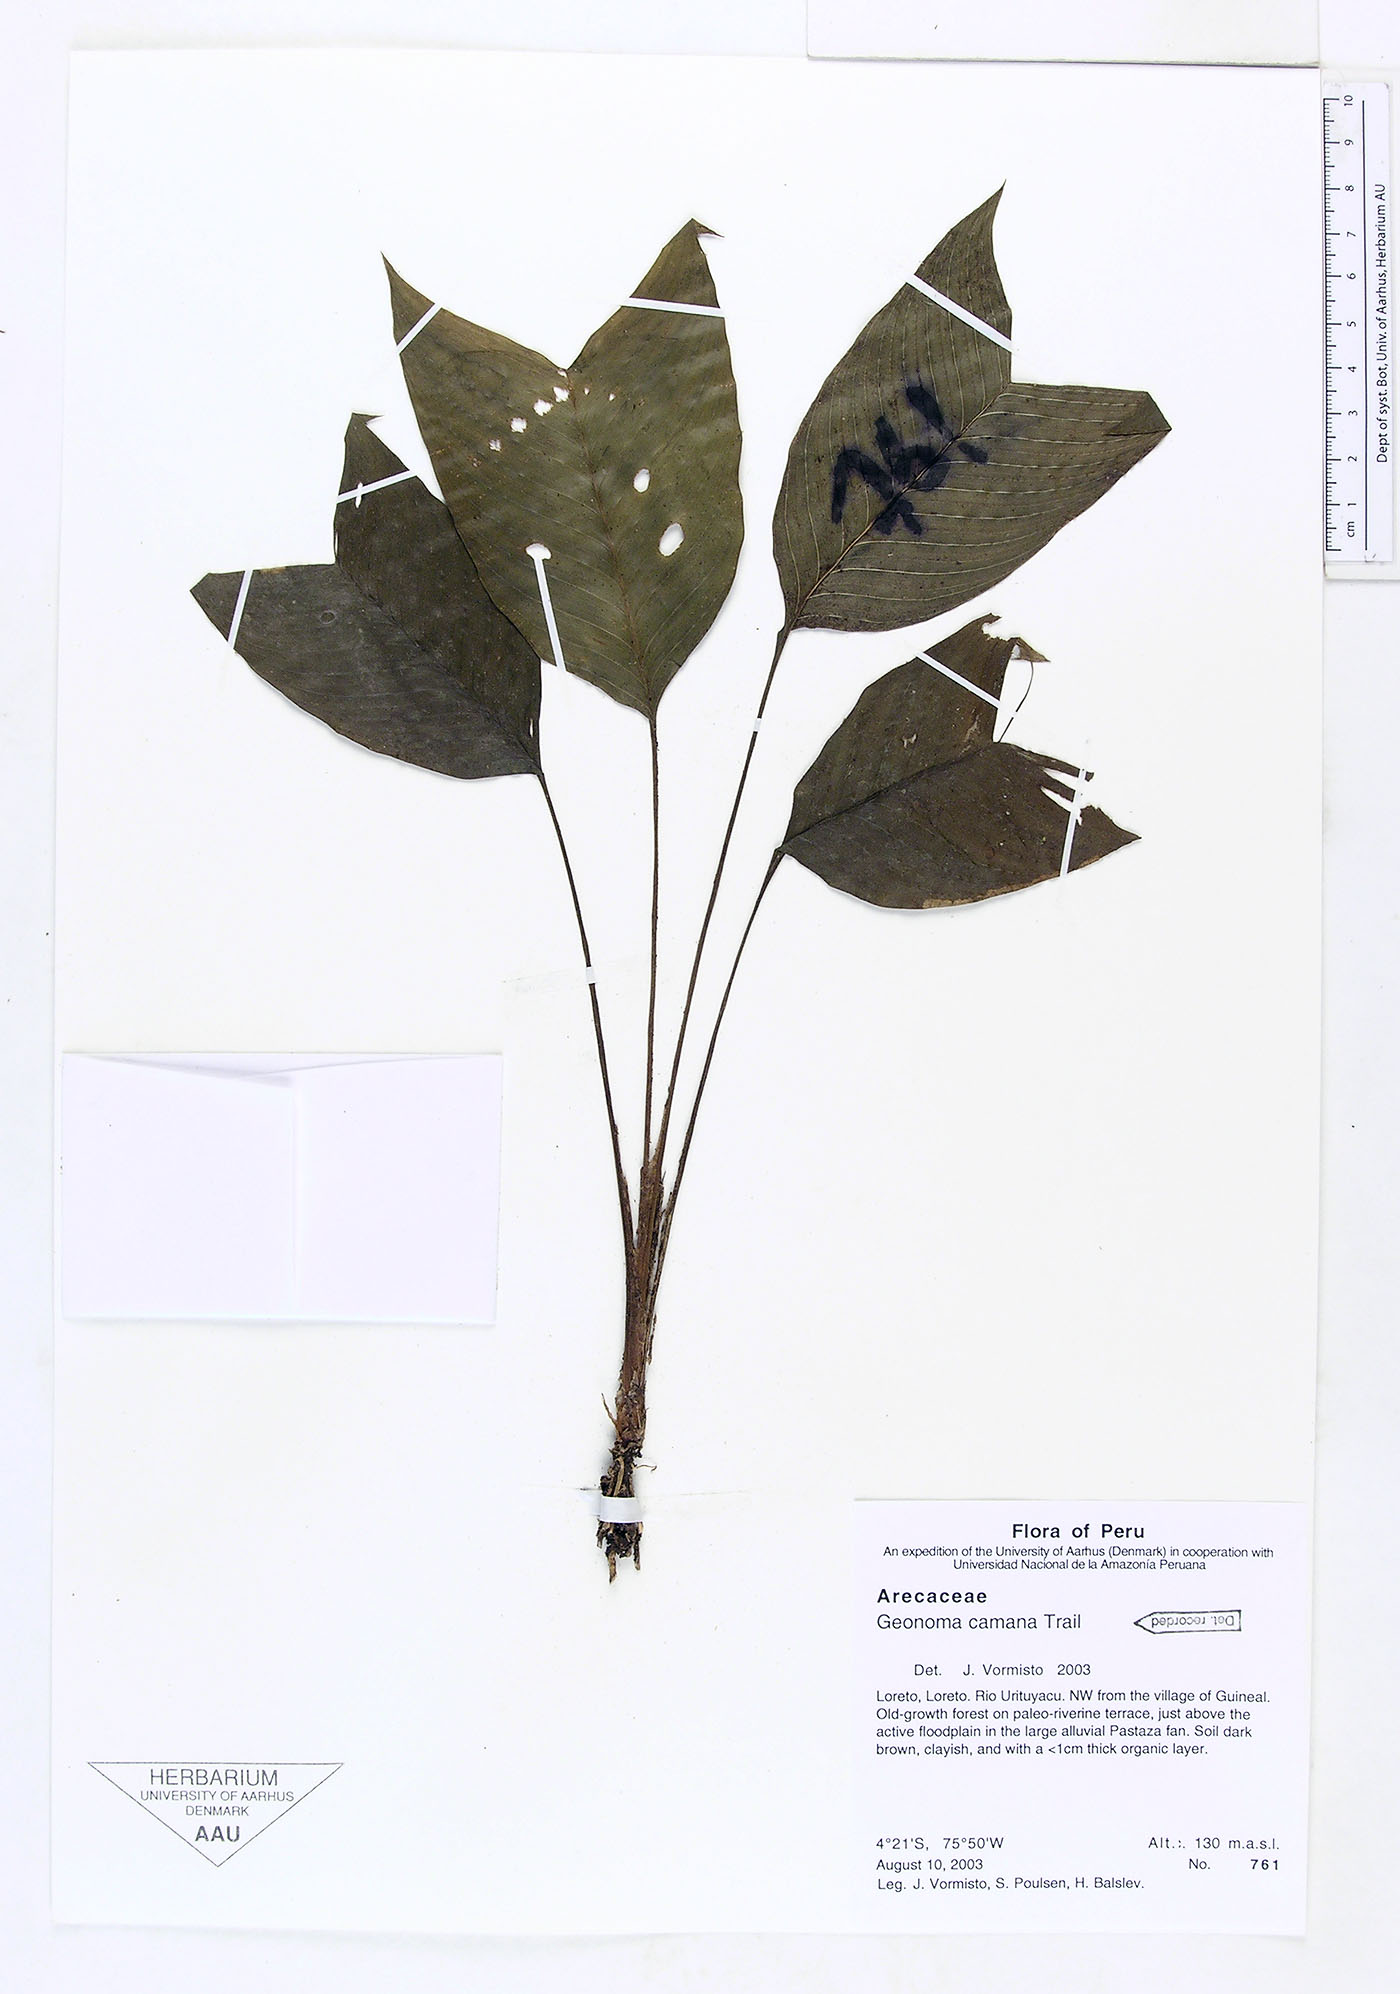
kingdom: Plantae
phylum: Tracheophyta
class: Liliopsida
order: Arecales
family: Arecaceae
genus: Geonoma
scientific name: Geonoma camana
